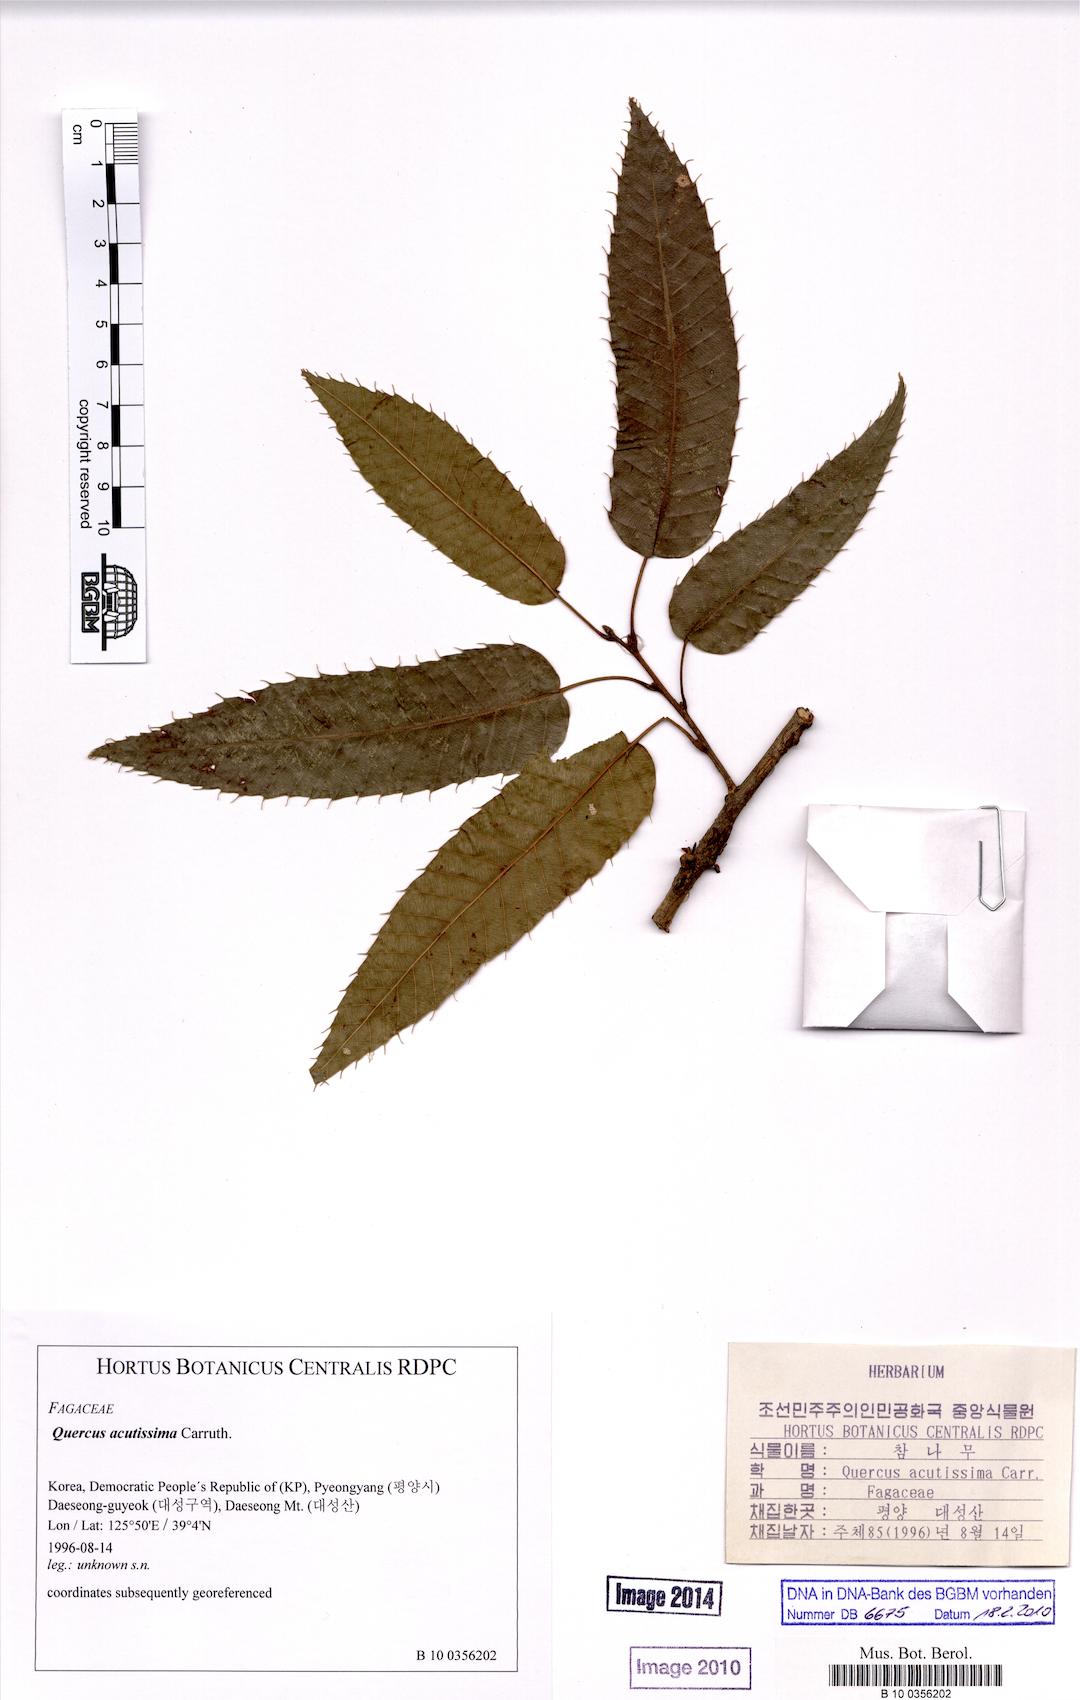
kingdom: Plantae
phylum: Tracheophyta
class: Magnoliopsida
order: Fagales
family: Fagaceae
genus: Quercus
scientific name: Quercus acutissima
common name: Sawtooth oak
